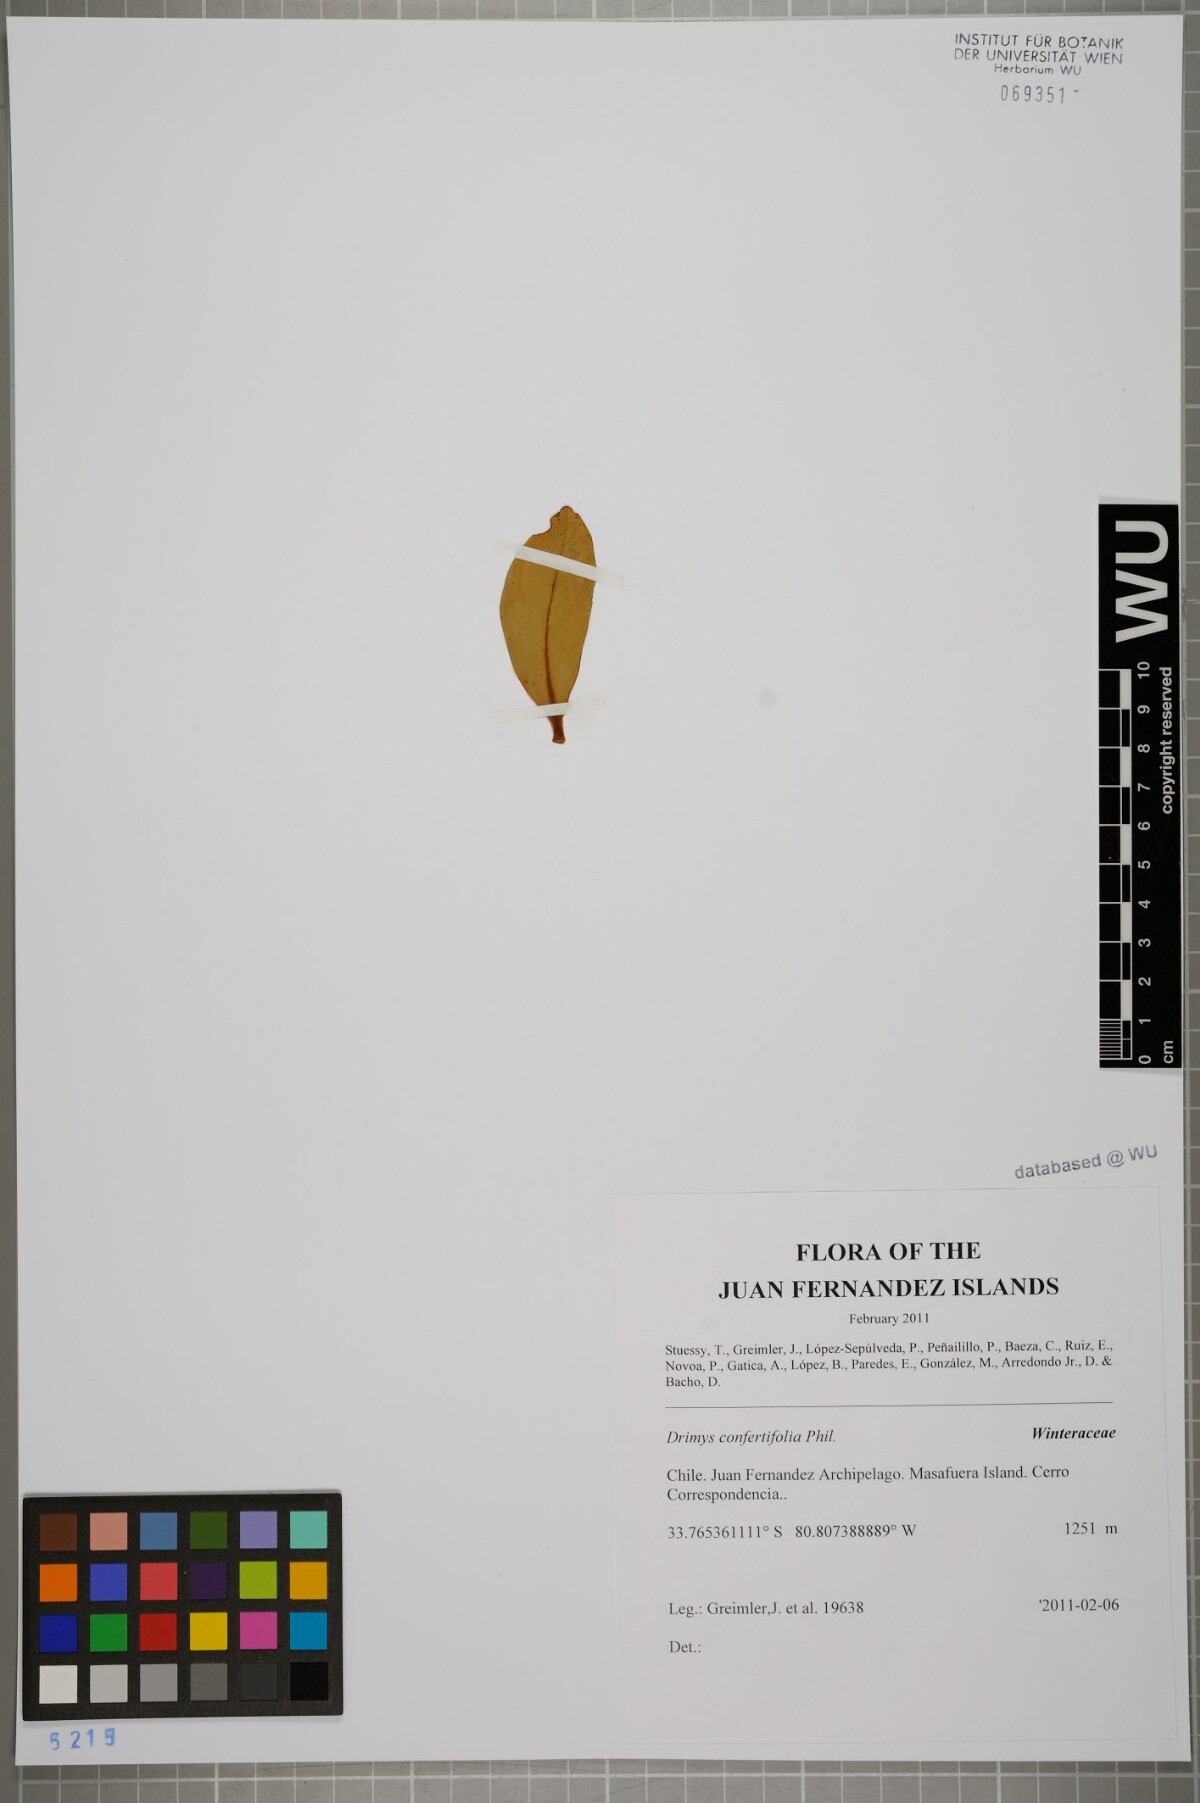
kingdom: Plantae
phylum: Tracheophyta
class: Magnoliopsida
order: Canellales
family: Winteraceae
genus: Drimys
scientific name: Drimys confertiflora
